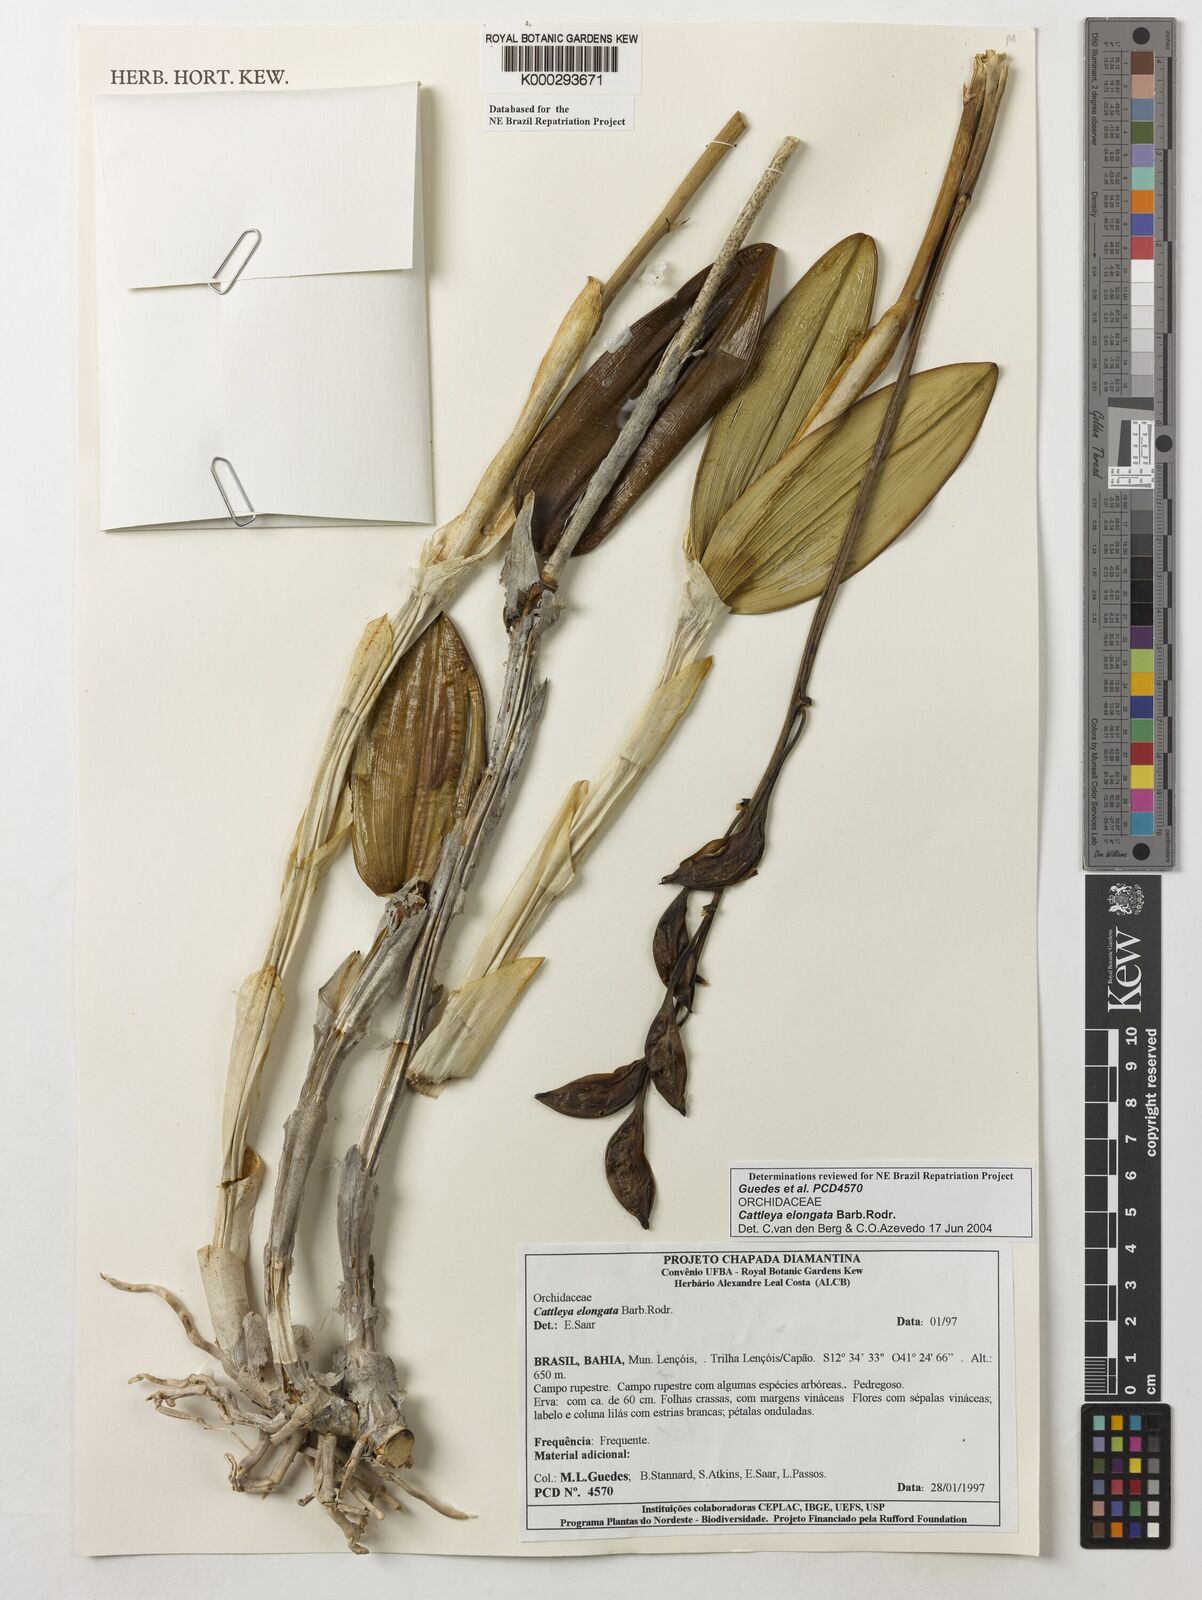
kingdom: Plantae
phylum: Tracheophyta
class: Liliopsida
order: Asparagales
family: Orchidaceae
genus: Cattleya
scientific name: Cattleya elongata
